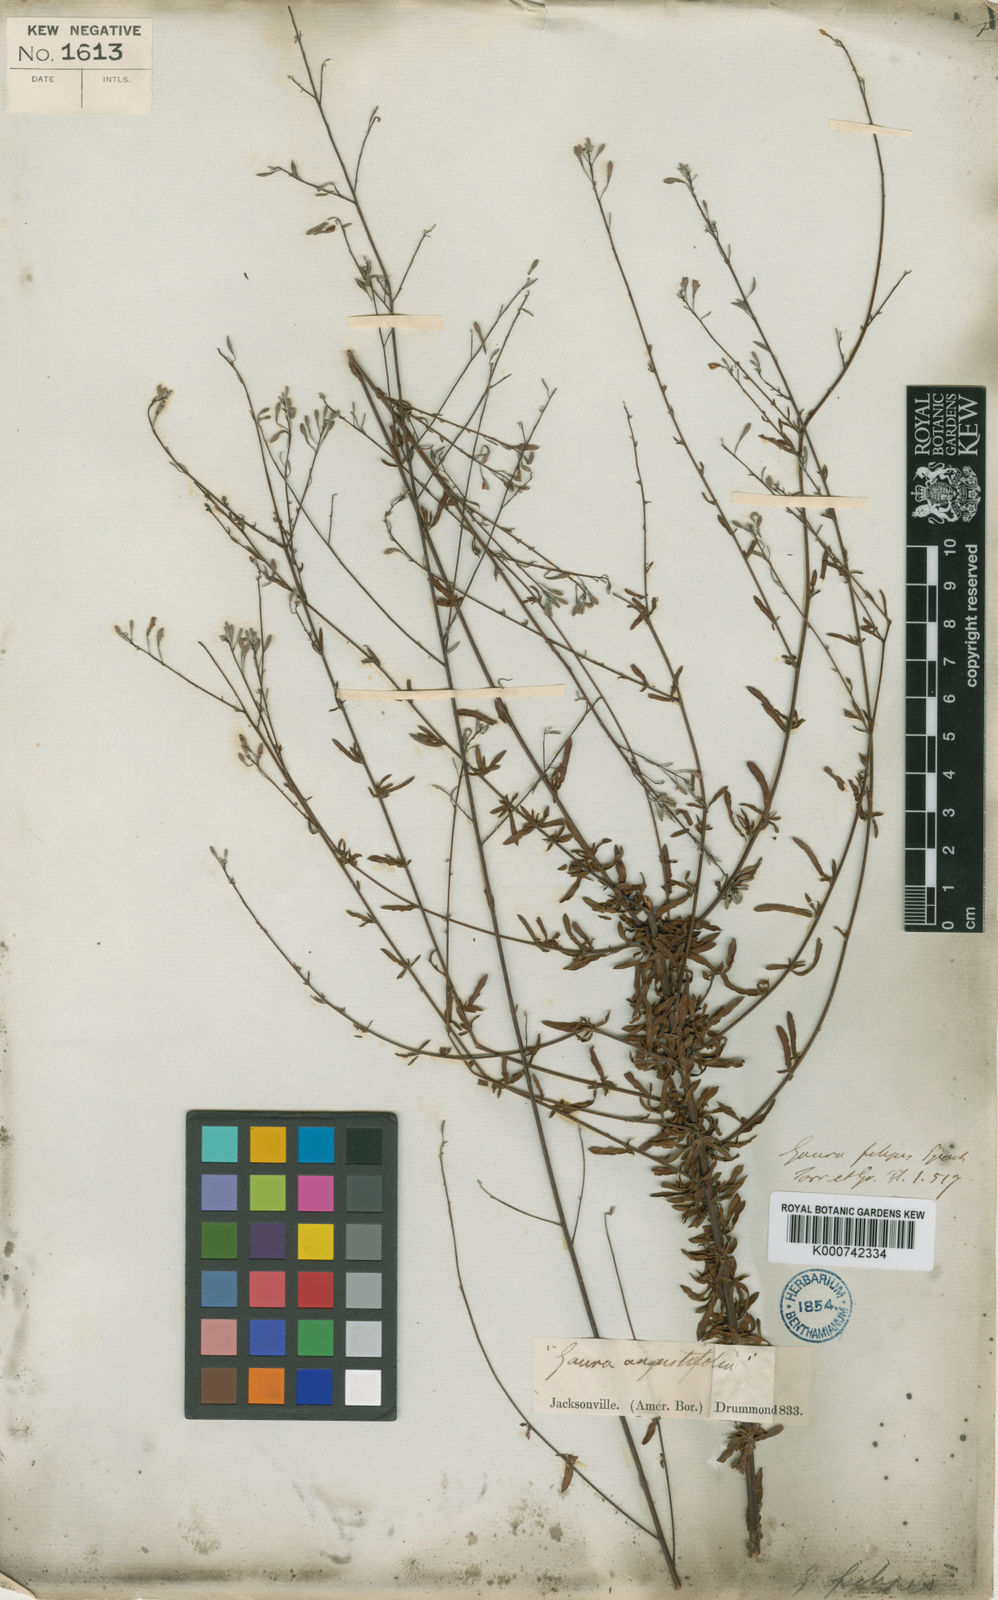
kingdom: Plantae
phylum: Tracheophyta
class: Magnoliopsida
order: Myrtales
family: Onagraceae
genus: Oenothera
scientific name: Oenothera filipes
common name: Slenderstalk beeblossom
